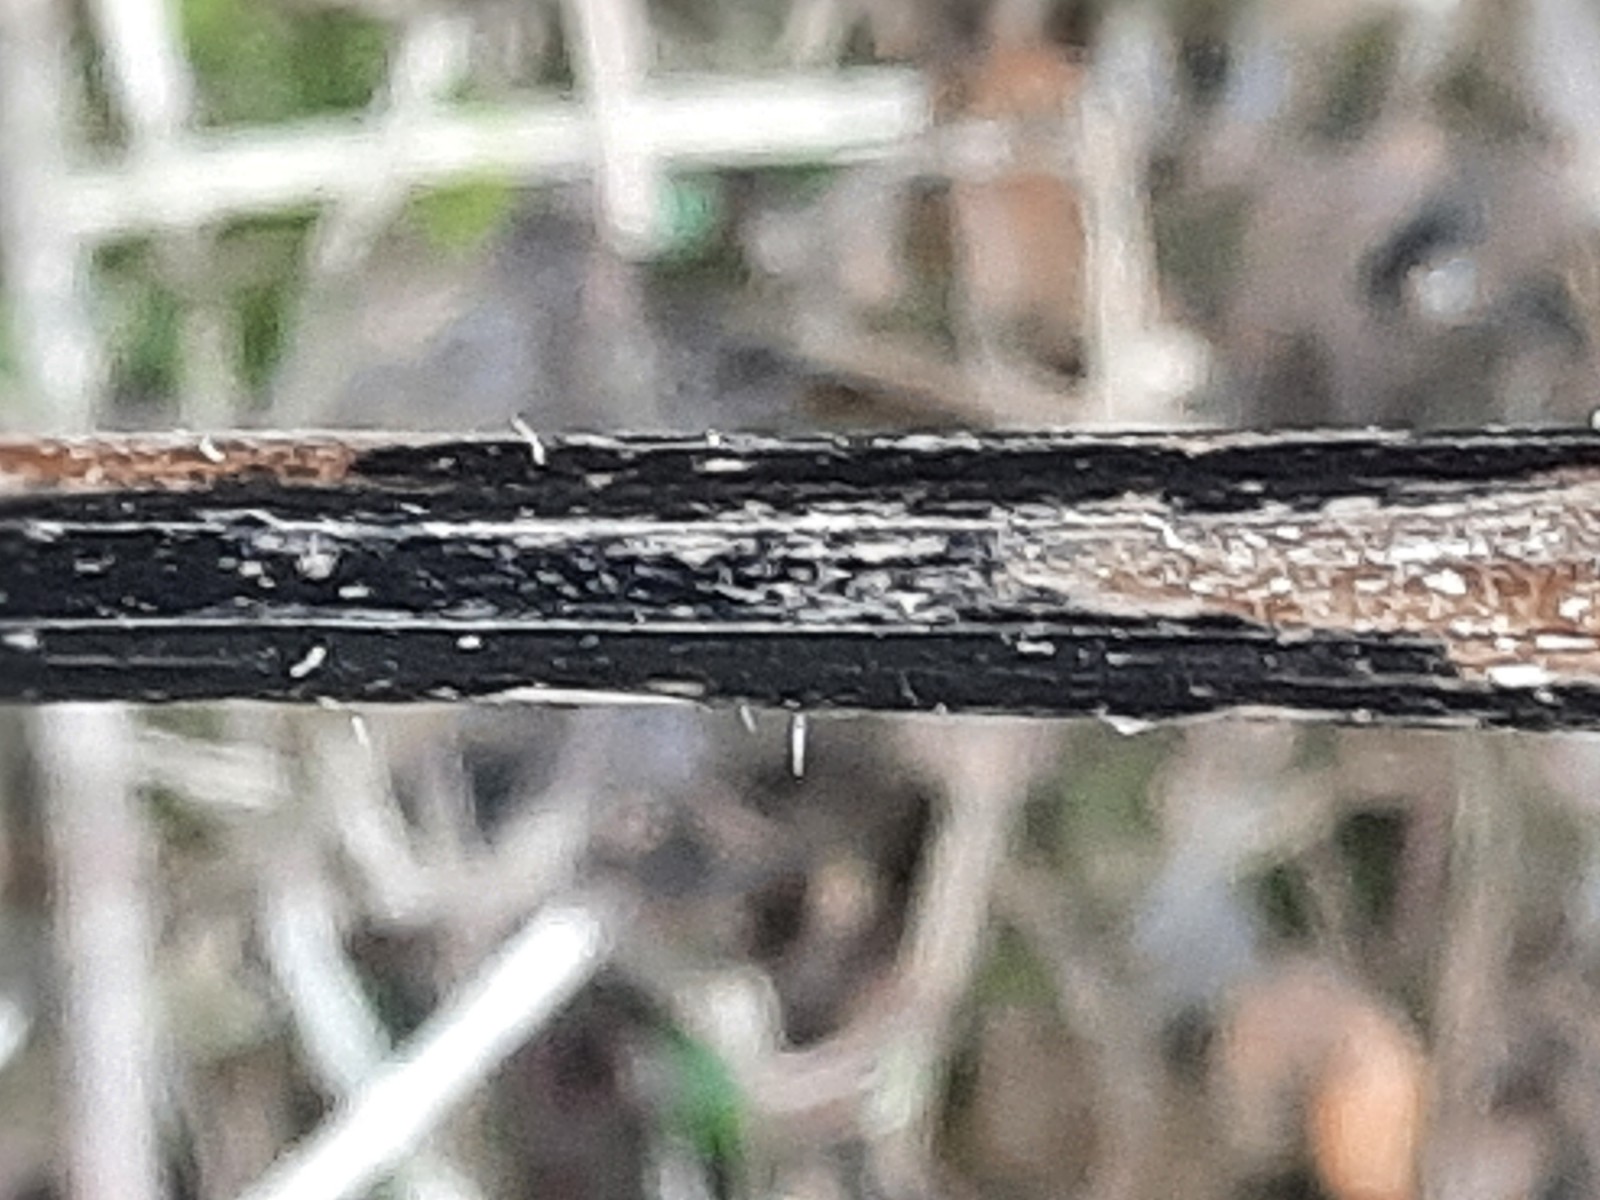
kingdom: Fungi
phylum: Ascomycota
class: Sordariomycetes
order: Diaporthales
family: Diaporthaceae
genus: Diaporthopsis
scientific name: Diaporthopsis urticae
